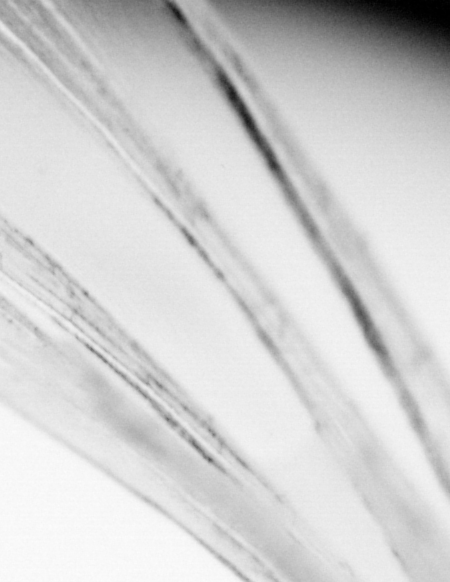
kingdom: Animalia
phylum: Chordata
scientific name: Chordata
